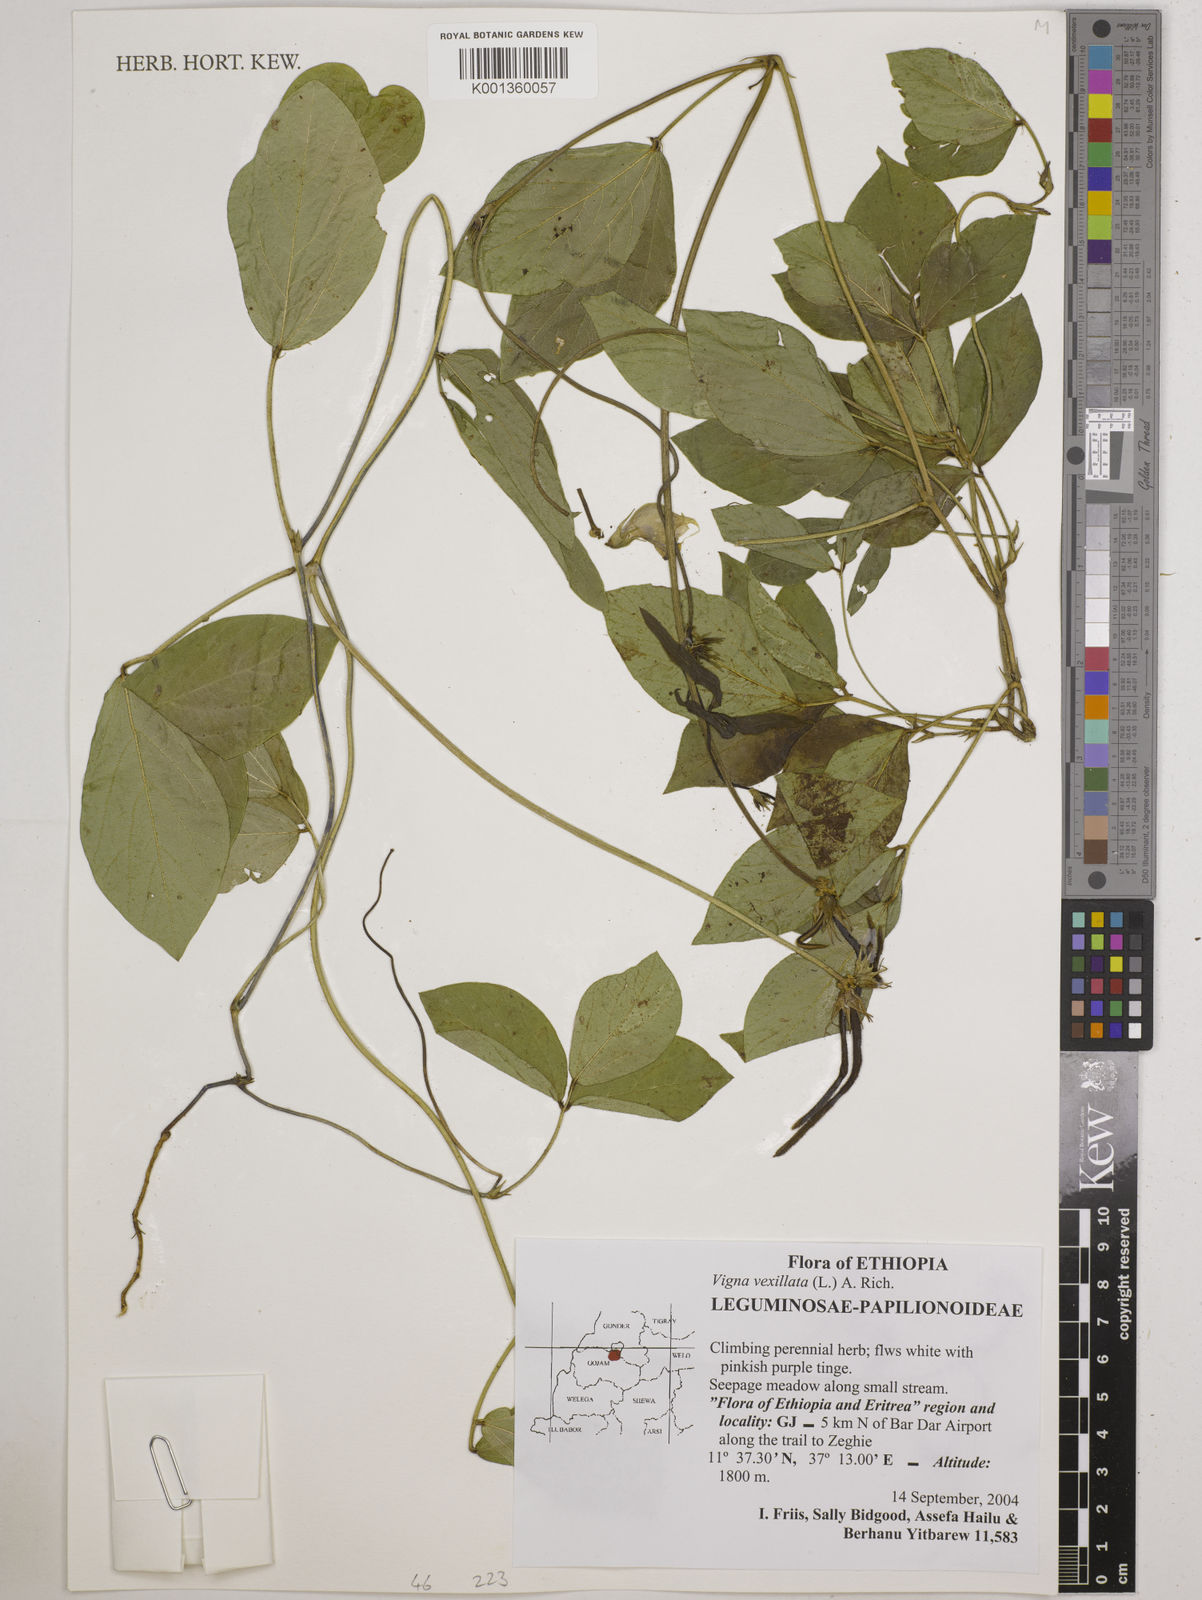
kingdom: Plantae
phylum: Tracheophyta
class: Magnoliopsida
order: Fabales
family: Fabaceae
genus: Vigna
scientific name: Vigna vexillata
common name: Zombi pea
